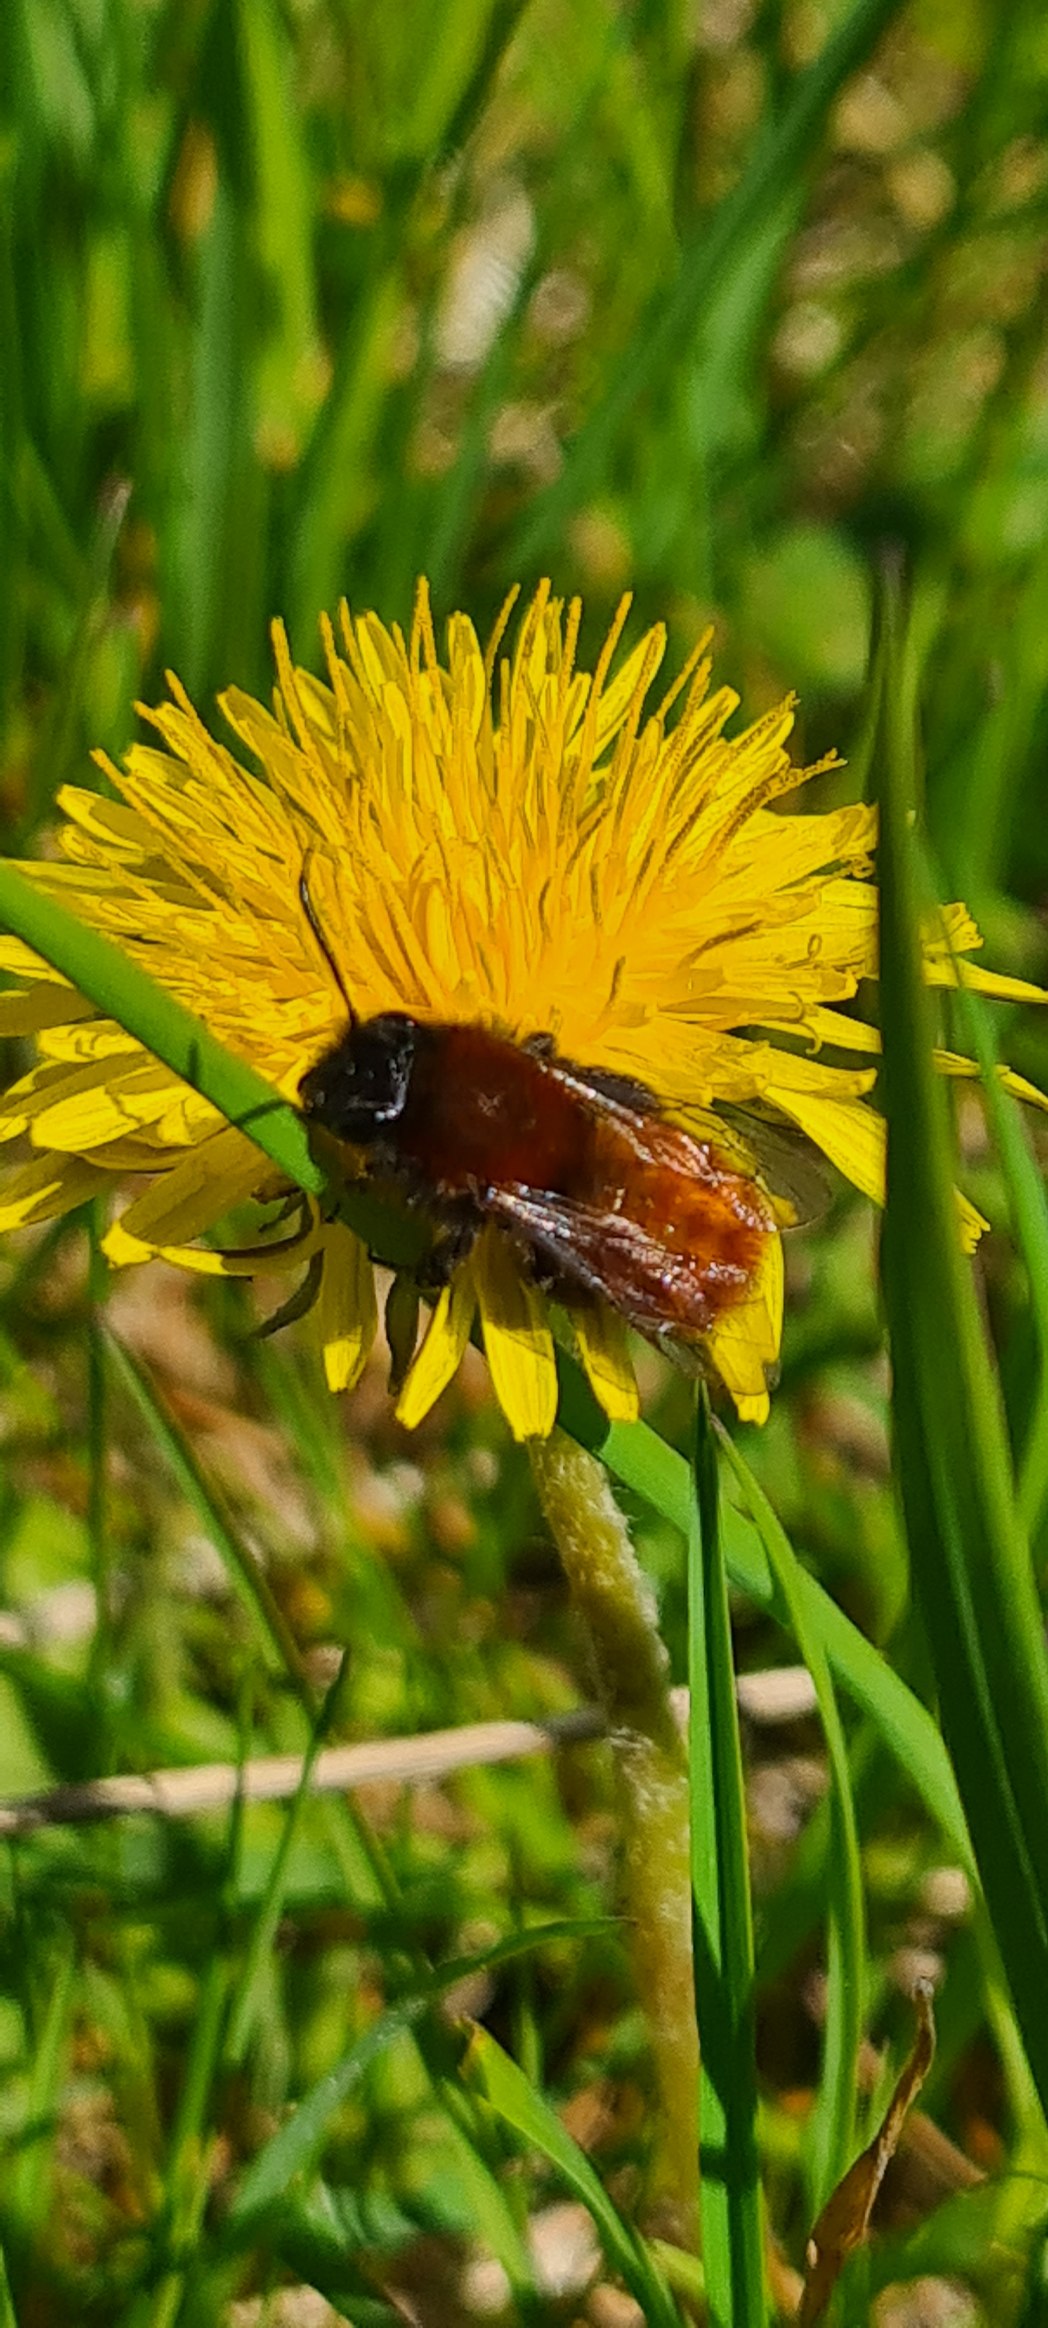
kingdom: Animalia
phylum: Arthropoda
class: Insecta
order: Hymenoptera
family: Andrenidae
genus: Andrena
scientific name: Andrena fulva
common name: Rødpelset jordbi
